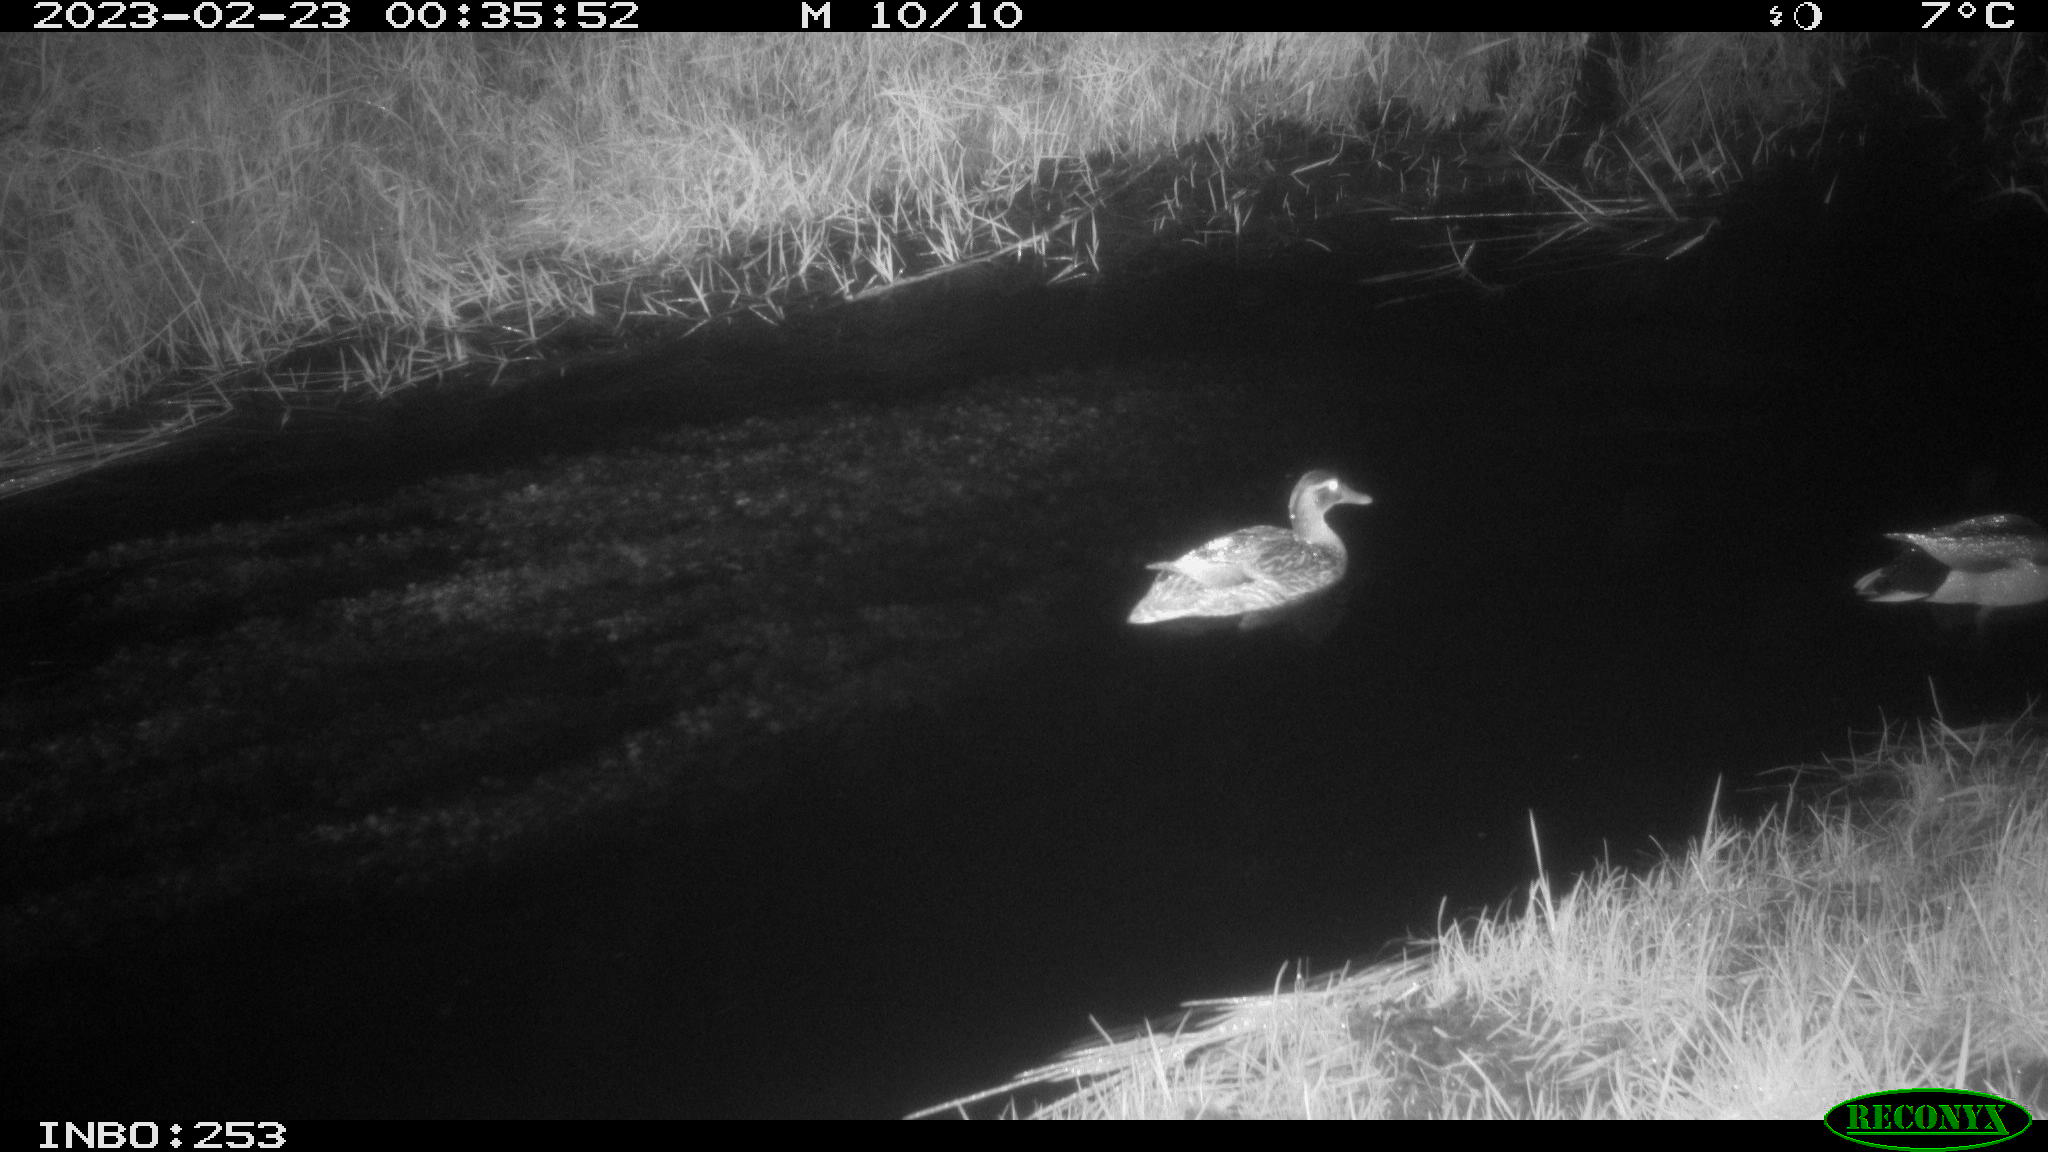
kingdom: Animalia
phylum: Chordata
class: Aves
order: Anseriformes
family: Anatidae
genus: Anas
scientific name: Anas
